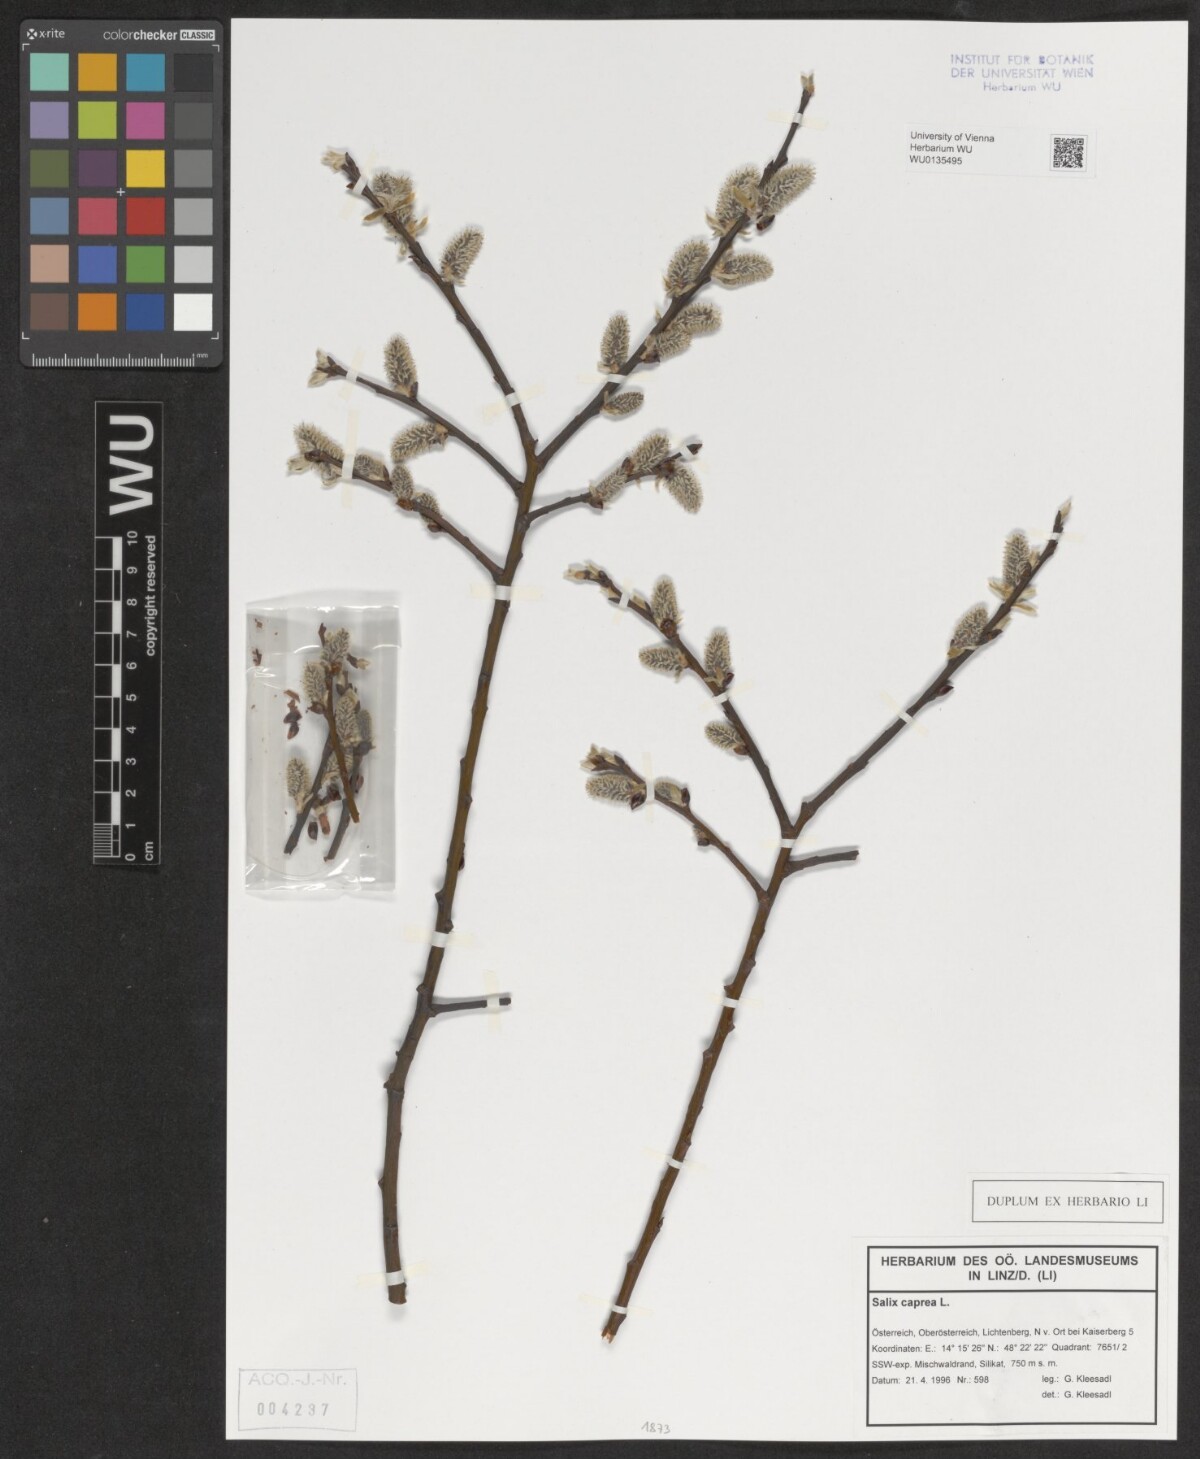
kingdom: Plantae
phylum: Tracheophyta
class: Magnoliopsida
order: Malpighiales
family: Salicaceae
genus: Salix
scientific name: Salix caprea
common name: Goat willow
